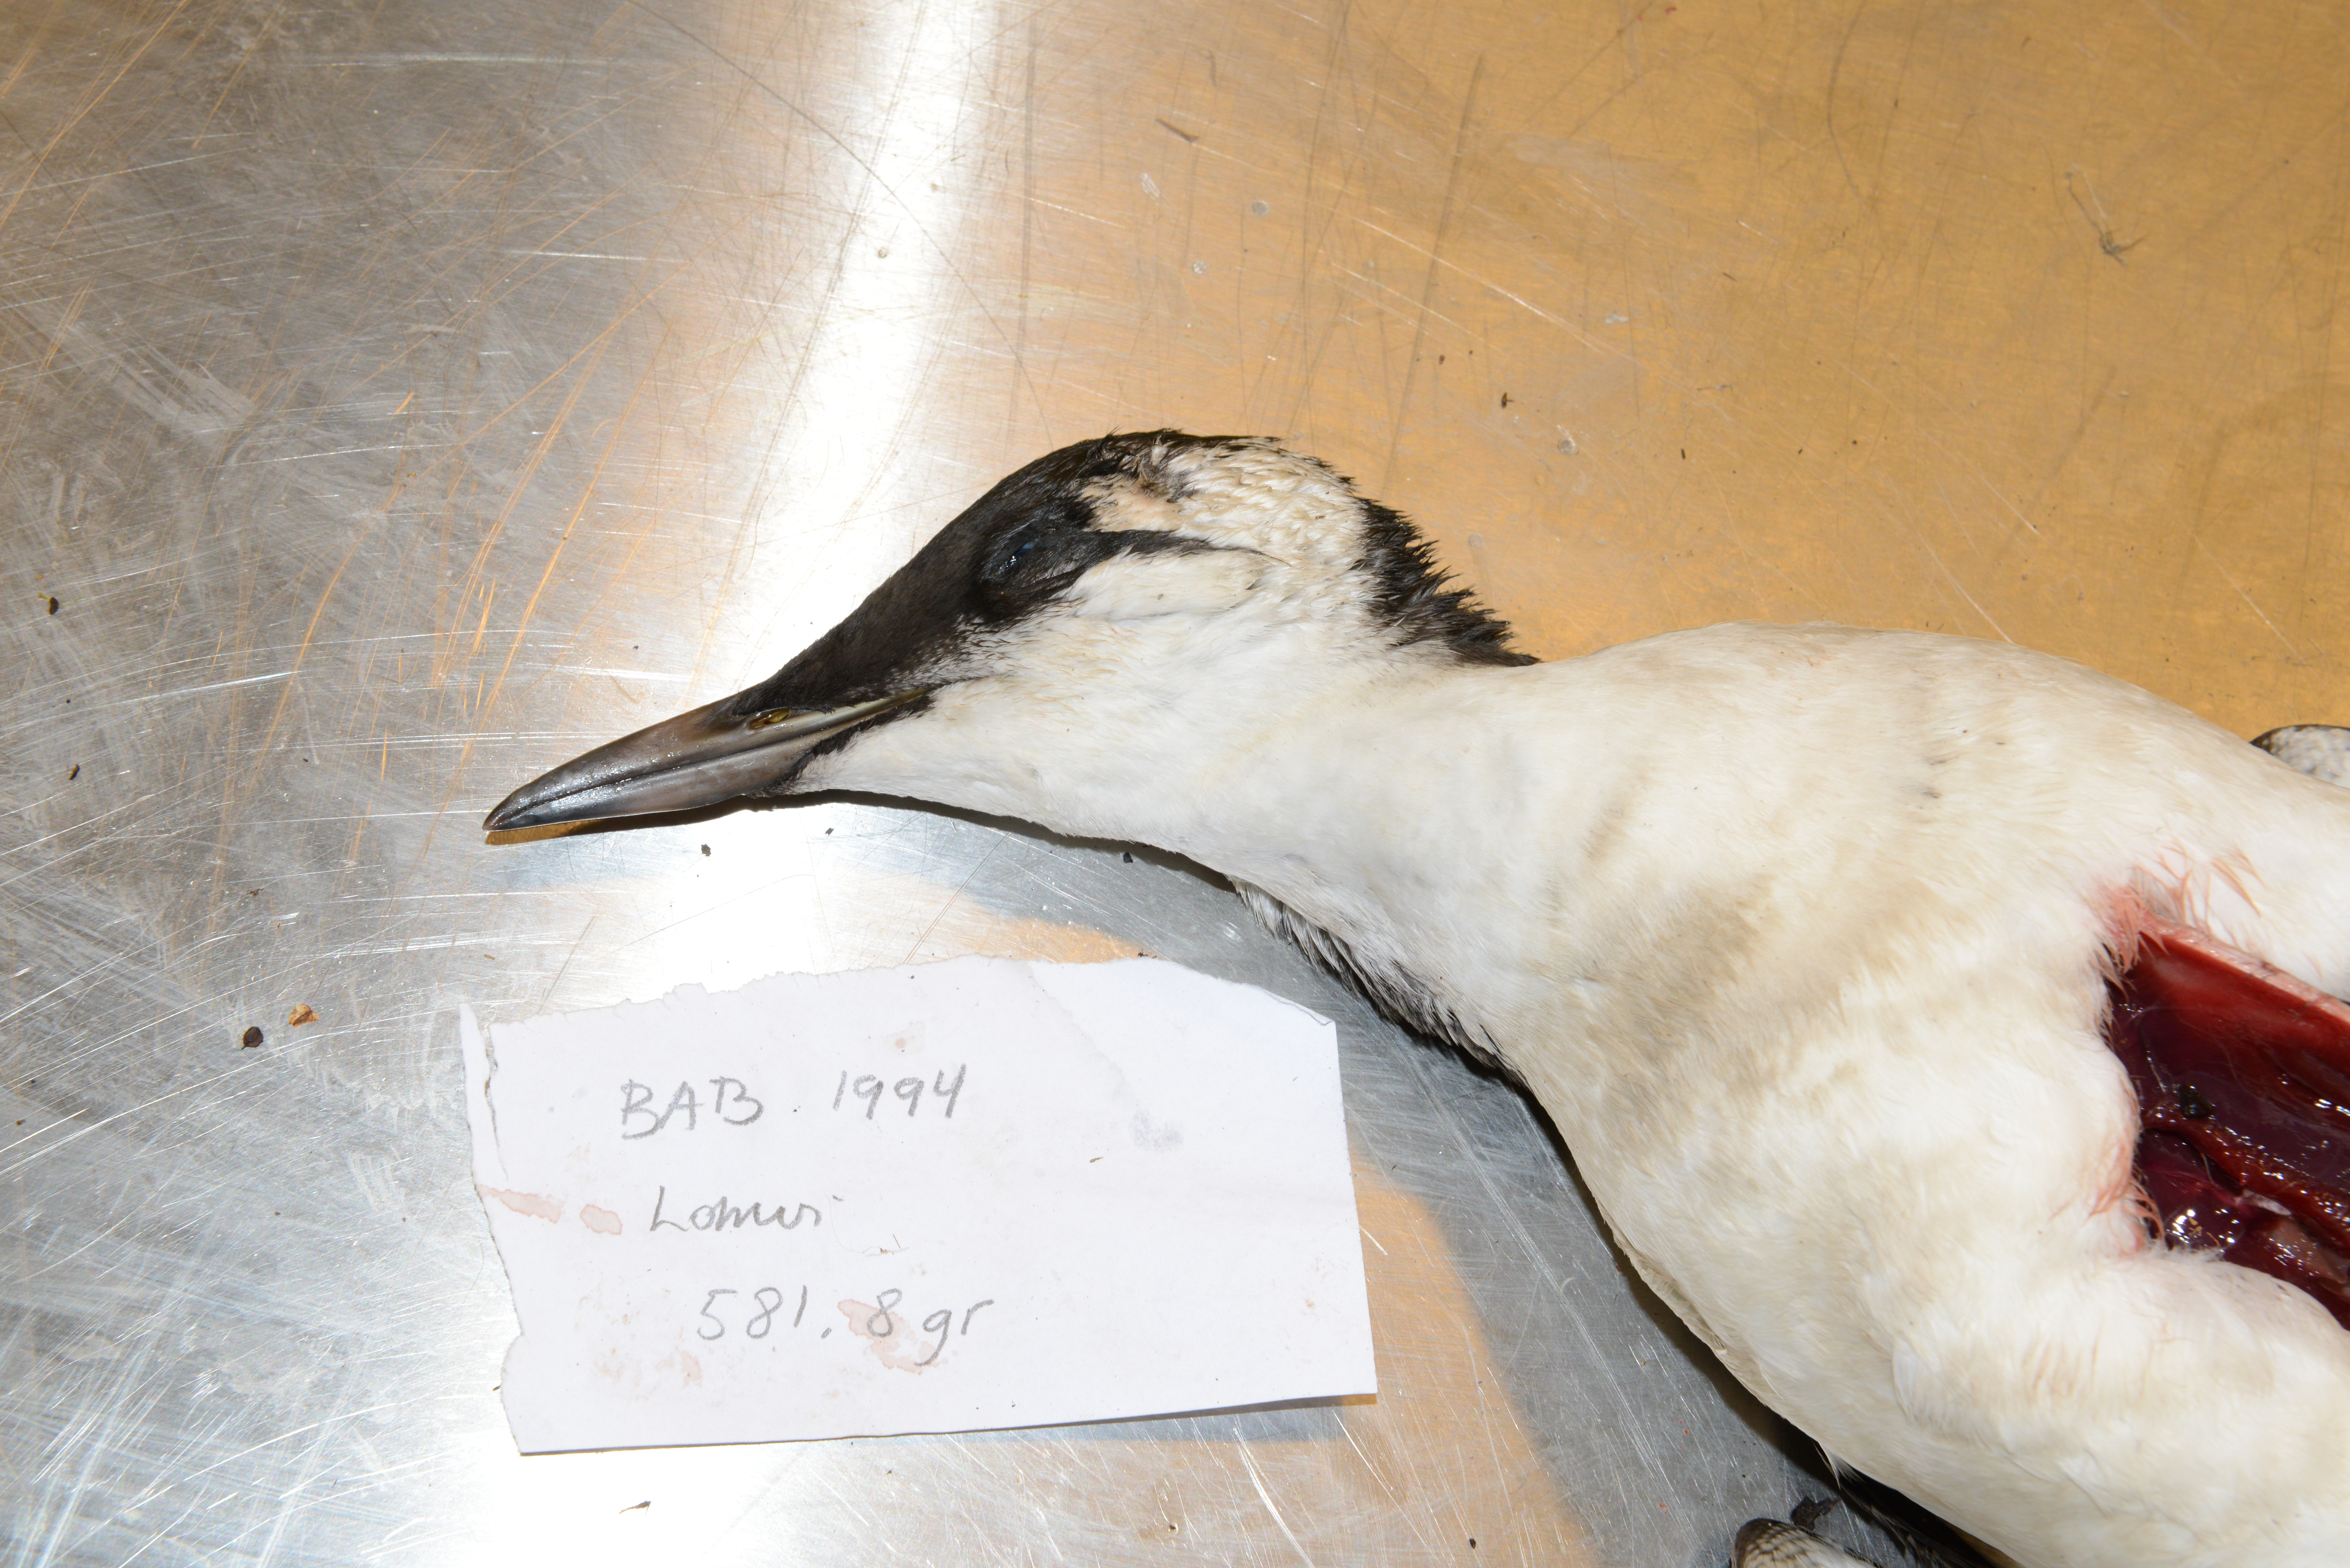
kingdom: Animalia
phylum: Chordata
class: Aves
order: Charadriiformes
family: Alcidae
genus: Uria
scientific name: Uria aalge
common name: Common murre
